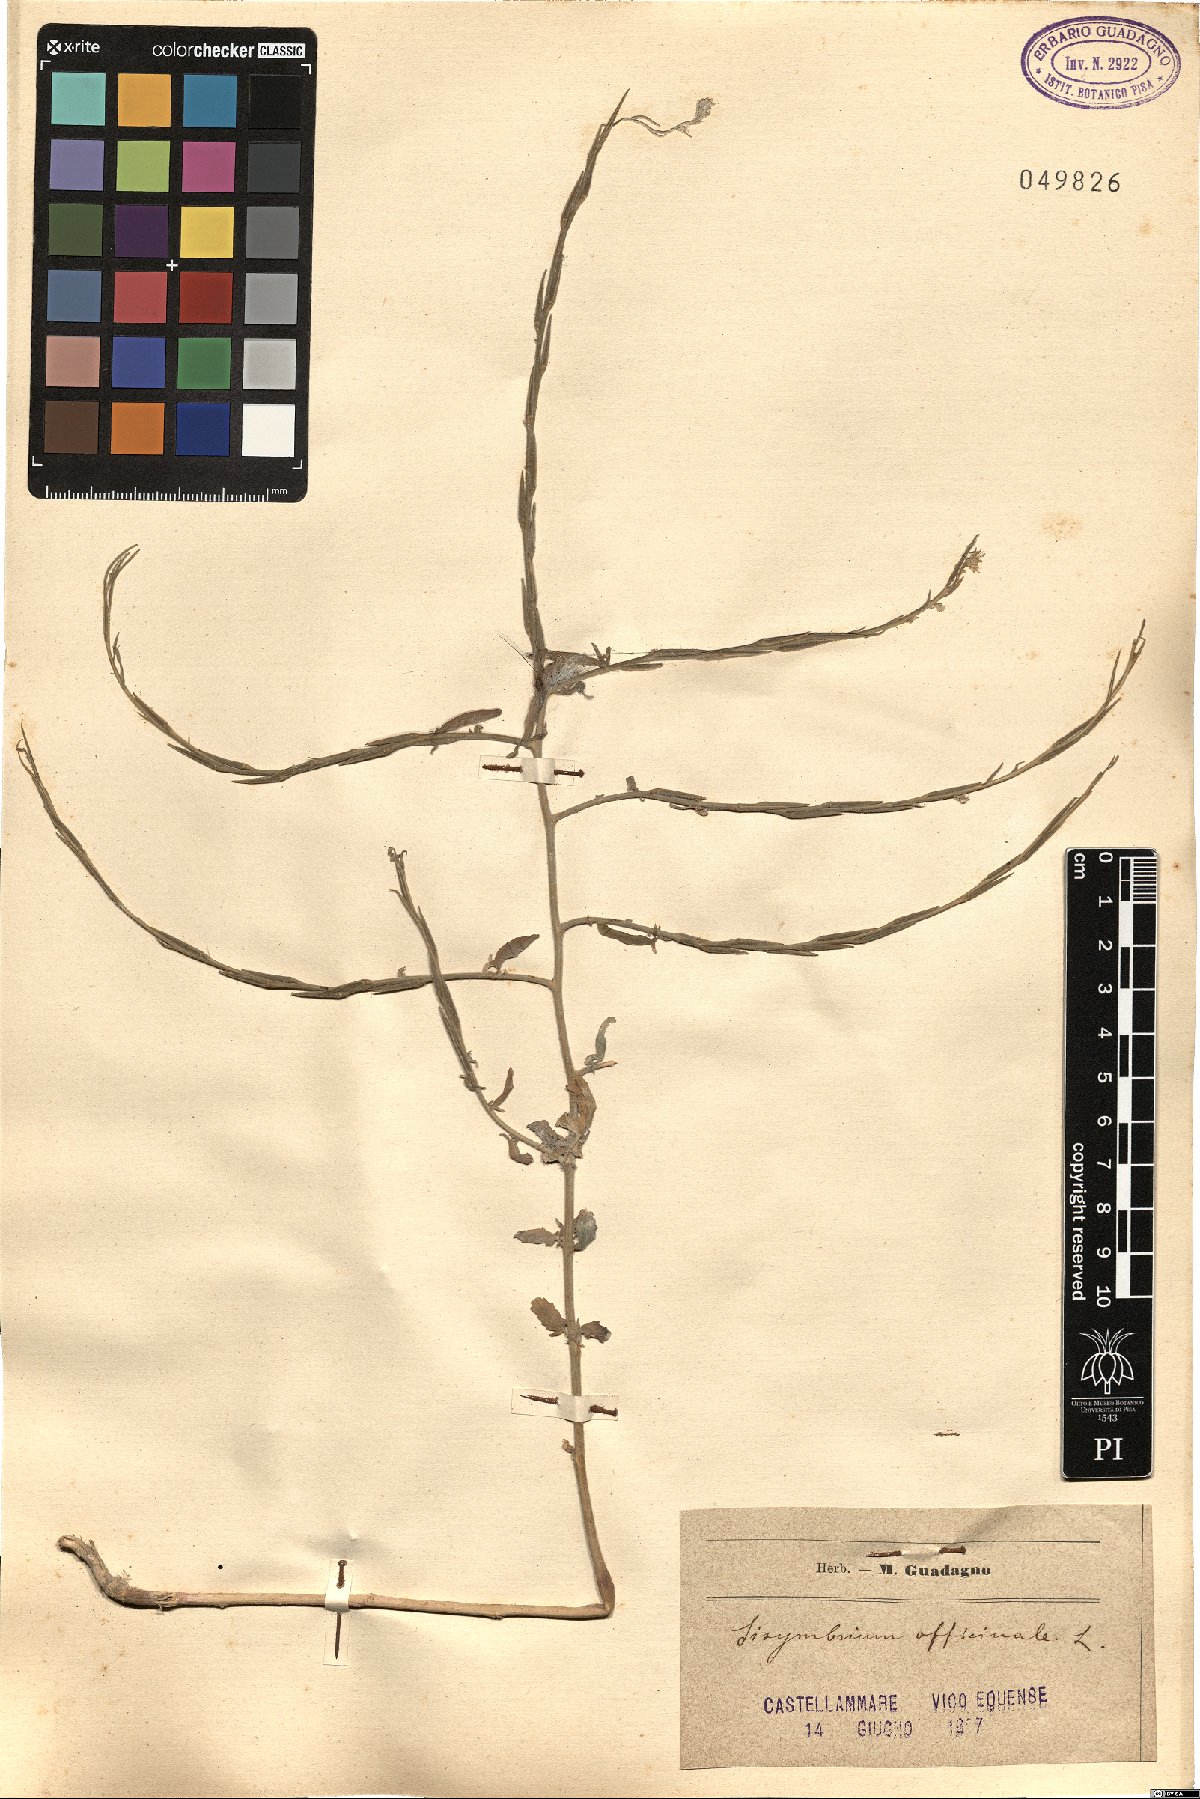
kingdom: Plantae
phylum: Tracheophyta
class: Magnoliopsida
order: Brassicales
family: Brassicaceae
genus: Sisymbrium
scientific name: Sisymbrium officinale
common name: Hedge mustard
